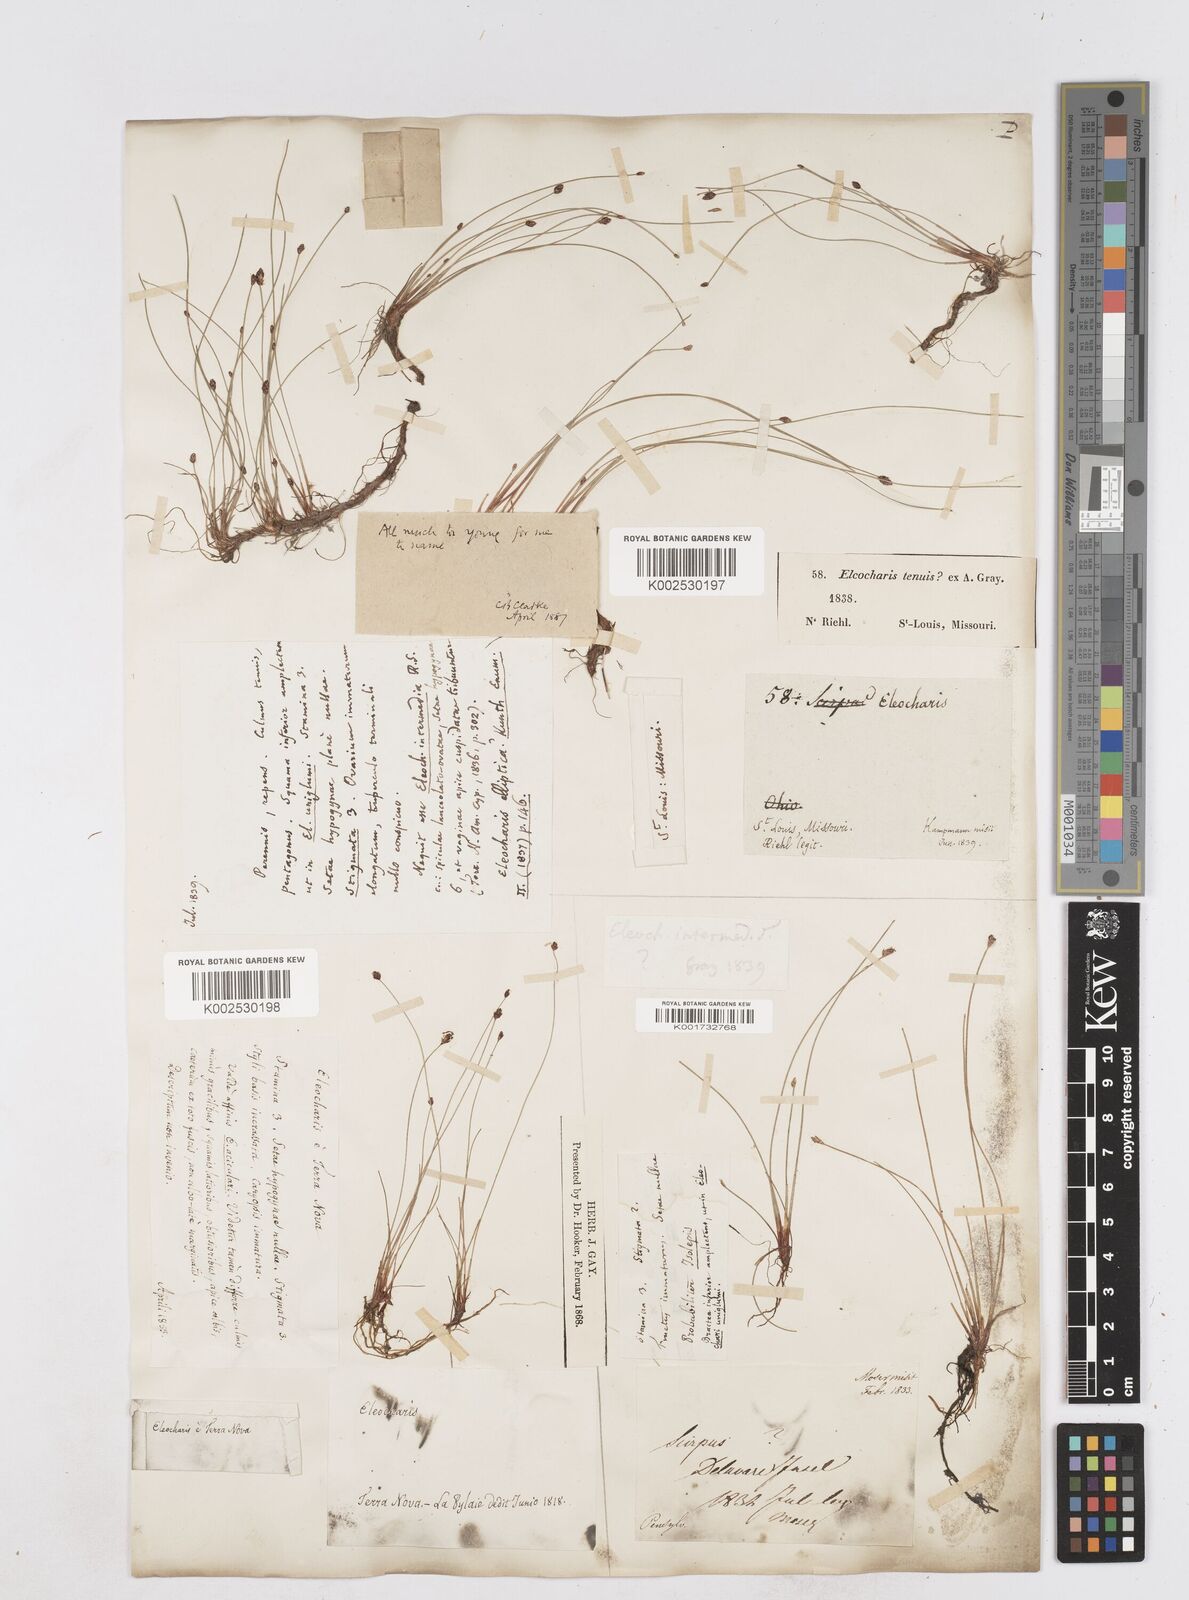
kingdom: Plantae
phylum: Tracheophyta
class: Liliopsida
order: Poales
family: Cyperaceae
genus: Eleocharis
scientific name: Eleocharis tenuis
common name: Dog's hair
